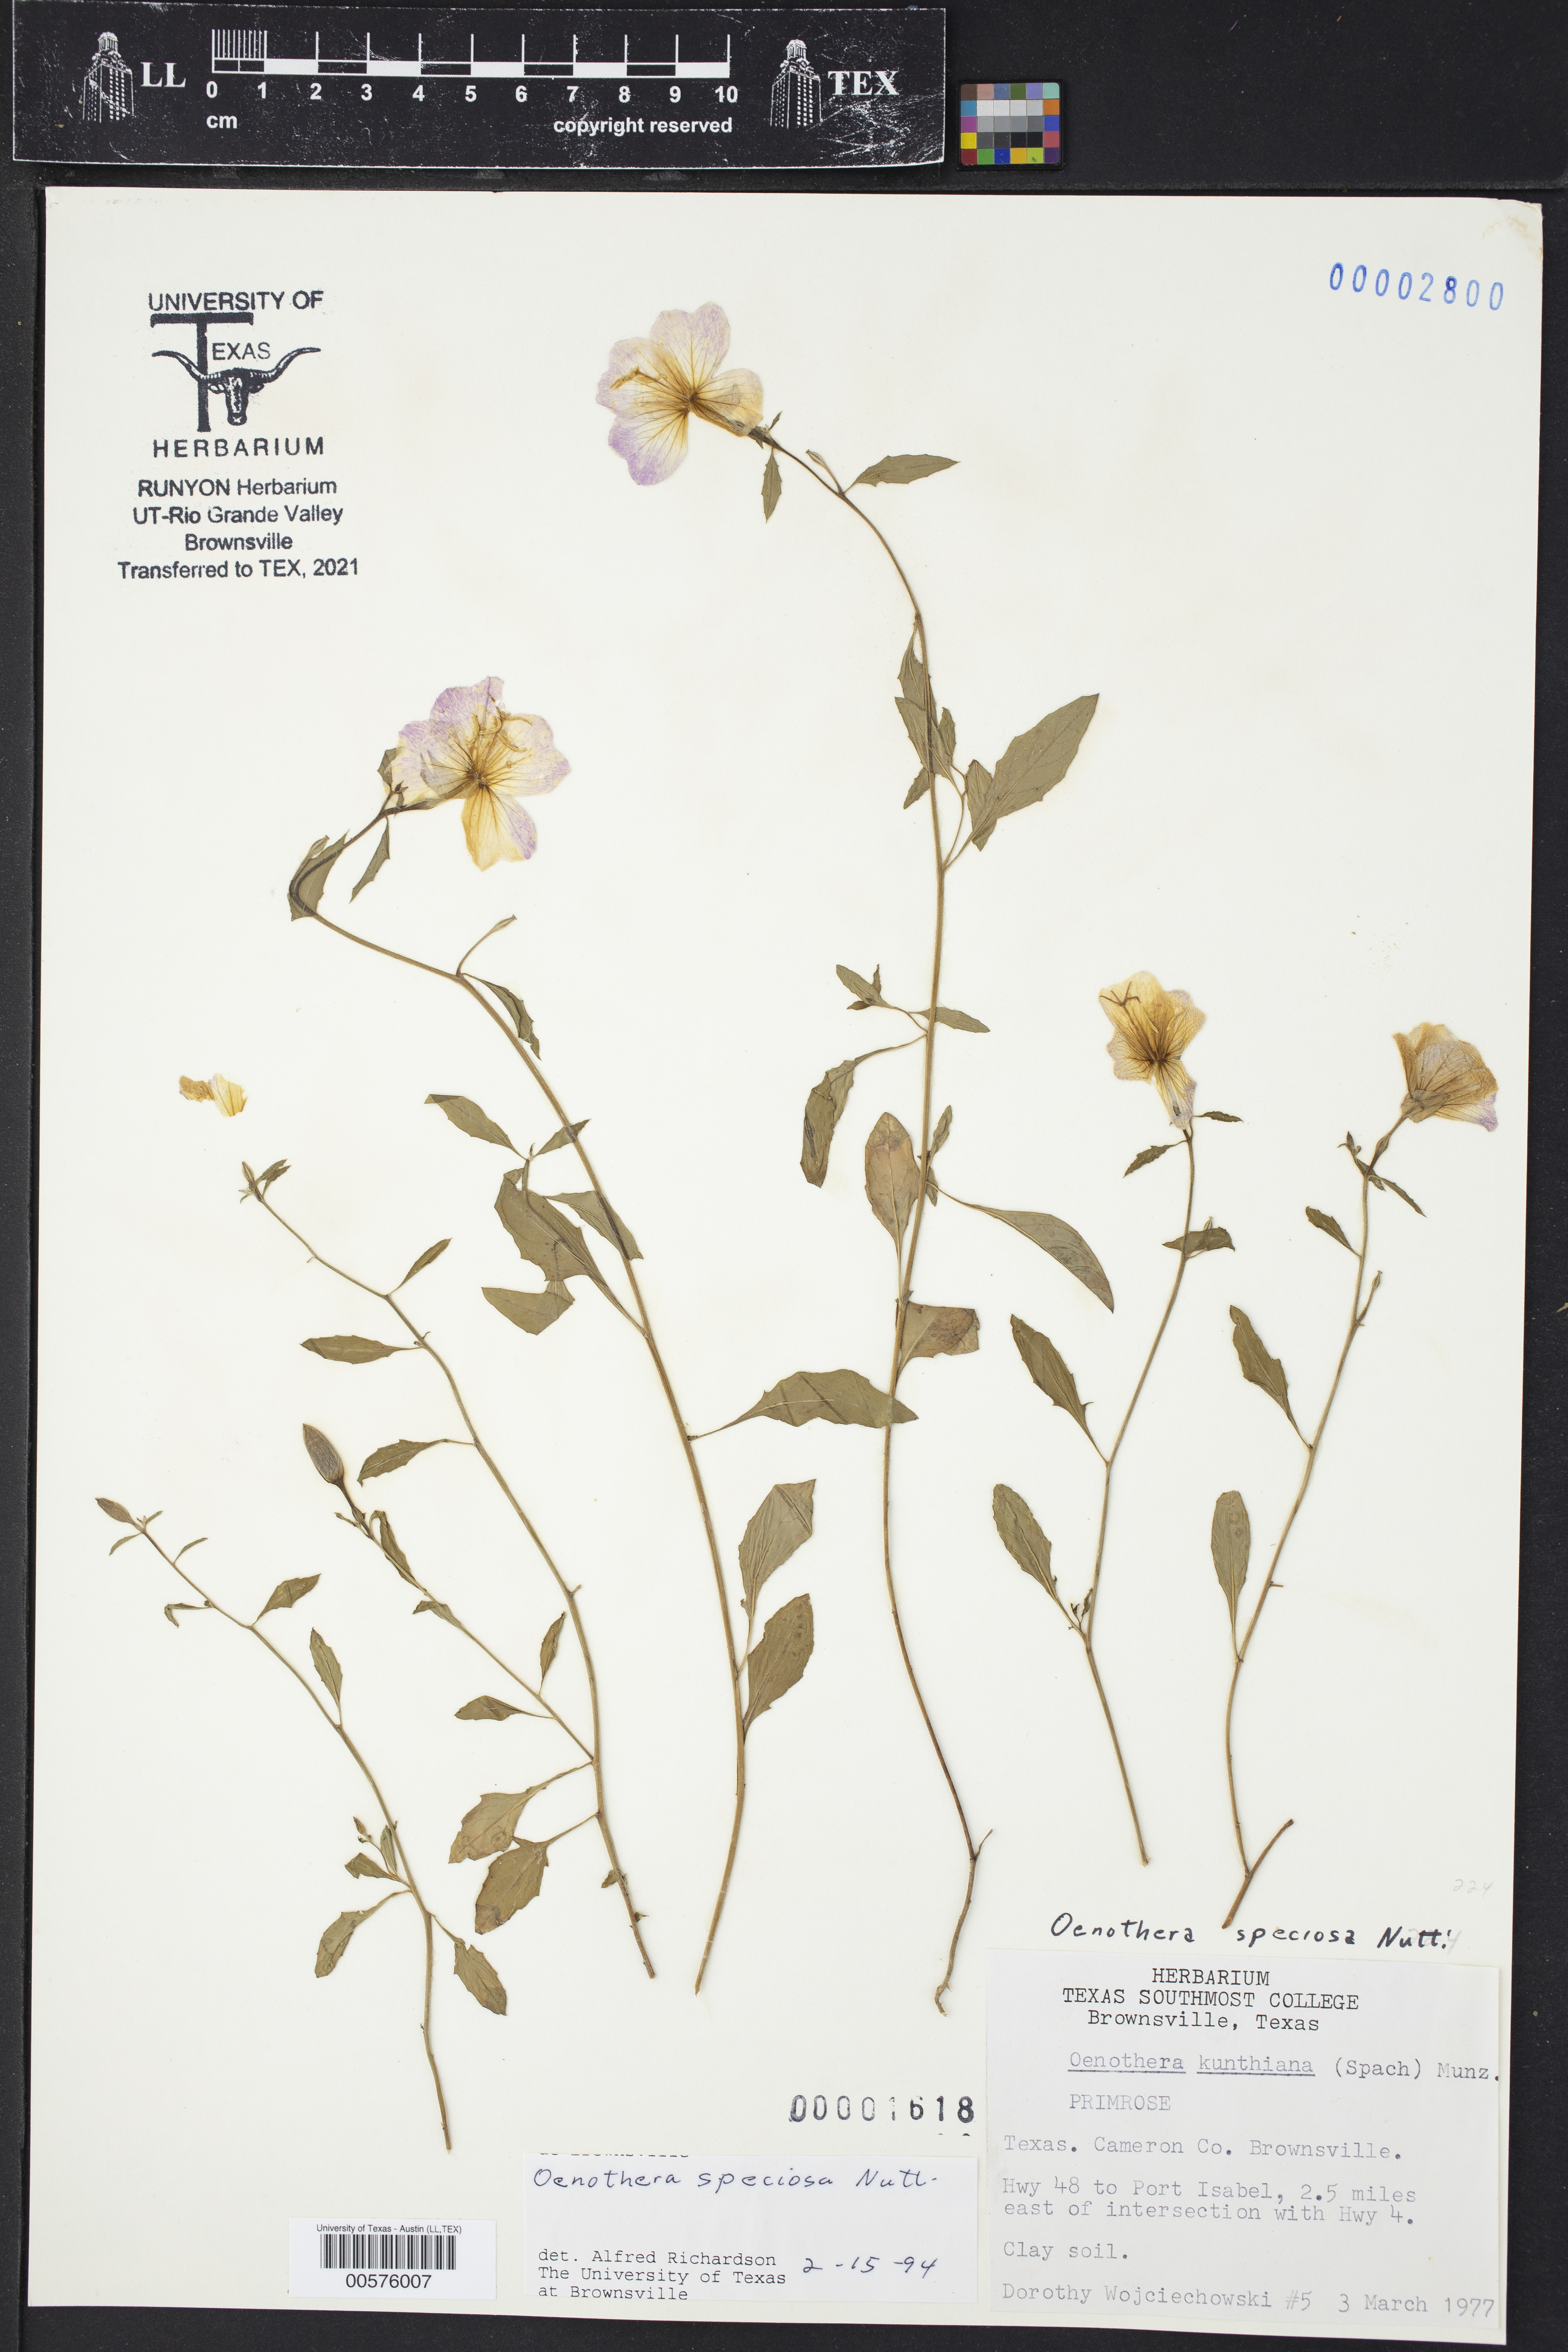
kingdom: Plantae
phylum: Tracheophyta
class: Magnoliopsida
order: Myrtales
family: Onagraceae
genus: Oenothera
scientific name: Oenothera speciosa
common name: White evening-primrose
